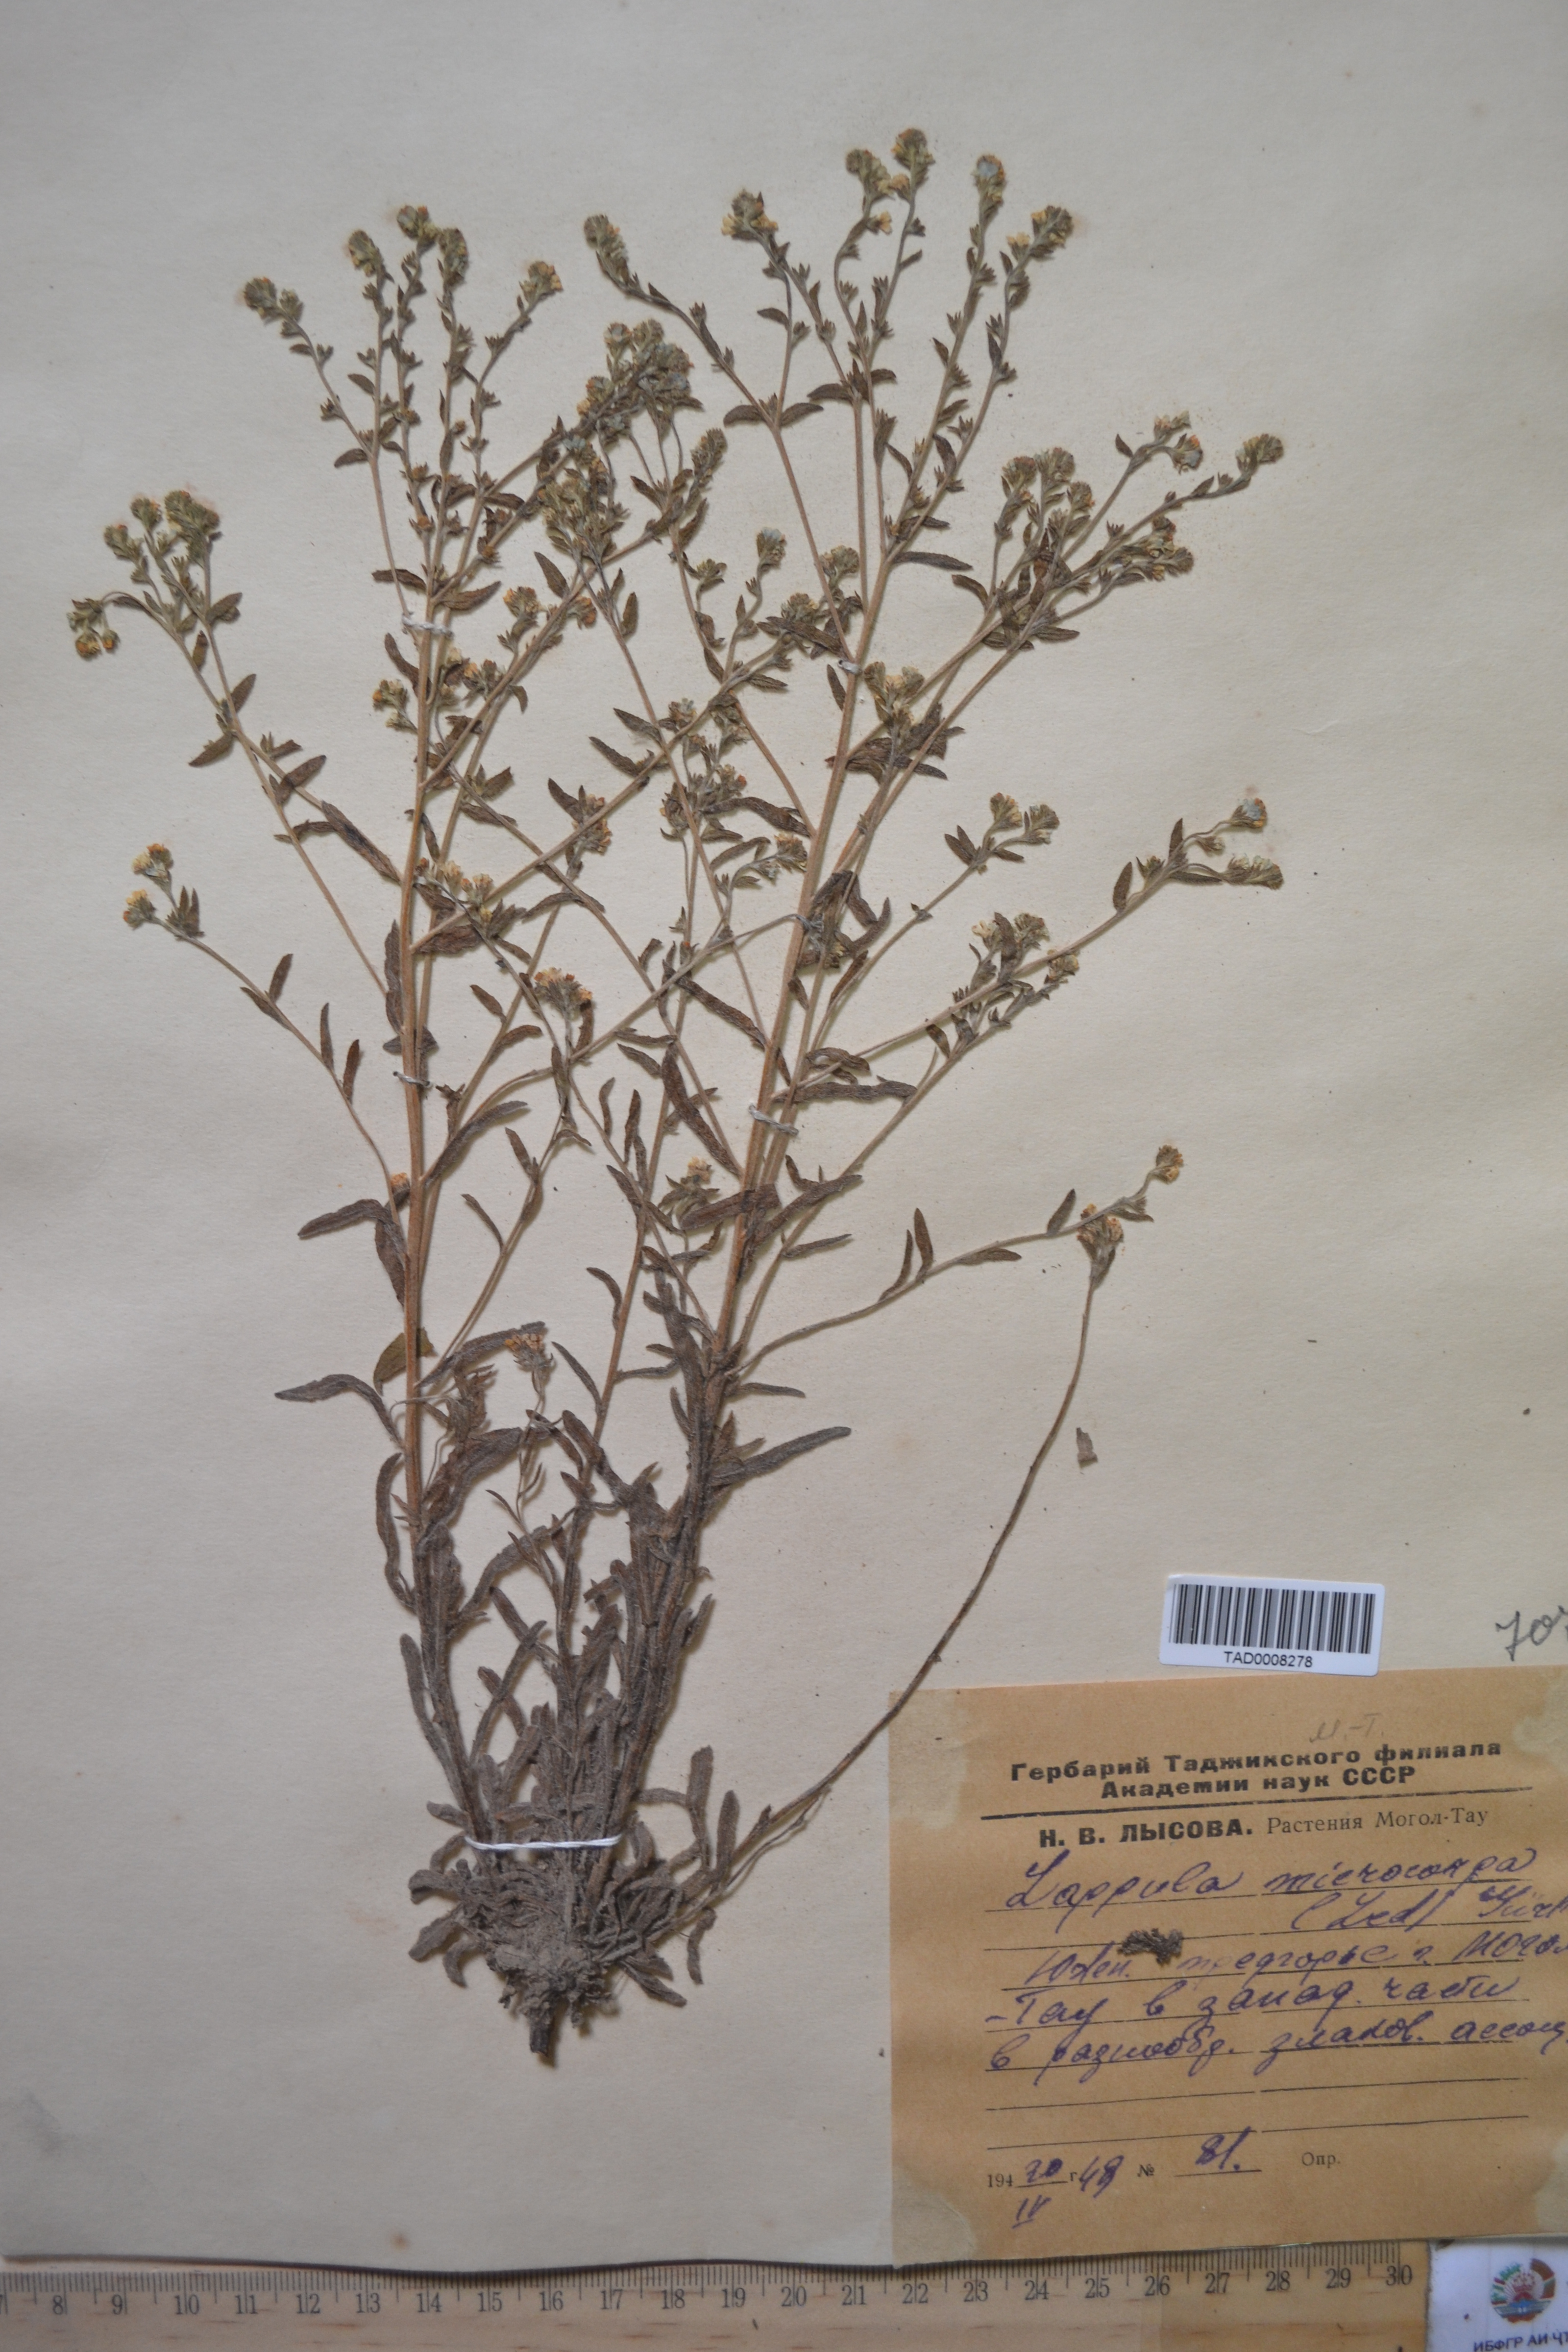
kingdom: Plantae
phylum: Tracheophyta
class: Magnoliopsida
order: Boraginales
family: Boraginaceae
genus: Lappula
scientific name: Lappula microcarpa
